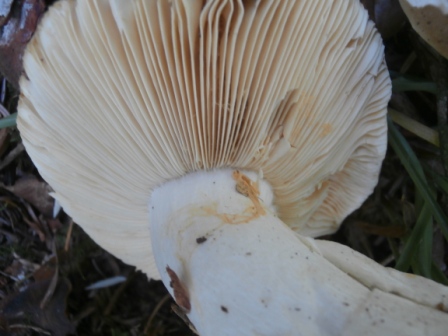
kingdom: Fungi
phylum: Basidiomycota
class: Agaricomycetes
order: Russulales
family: Russulaceae
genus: Russula
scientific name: Russula nauseosa
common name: spinkel skørhat
